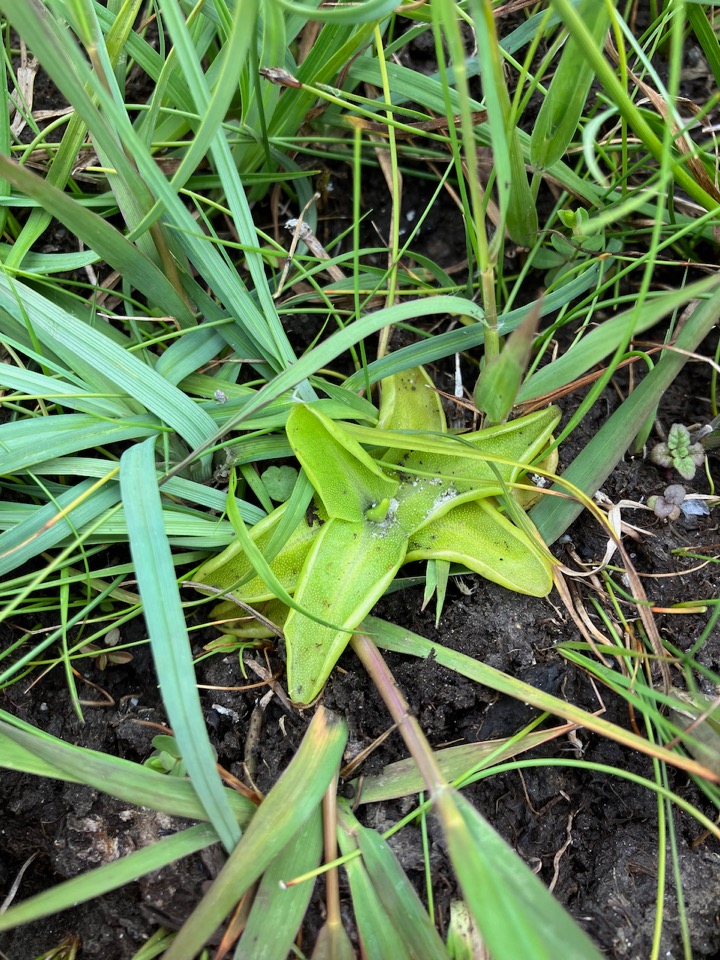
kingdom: Plantae
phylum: Tracheophyta
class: Magnoliopsida
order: Lamiales
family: Lentibulariaceae
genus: Pinguicula
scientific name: Pinguicula vulgaris
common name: Vibefedt
